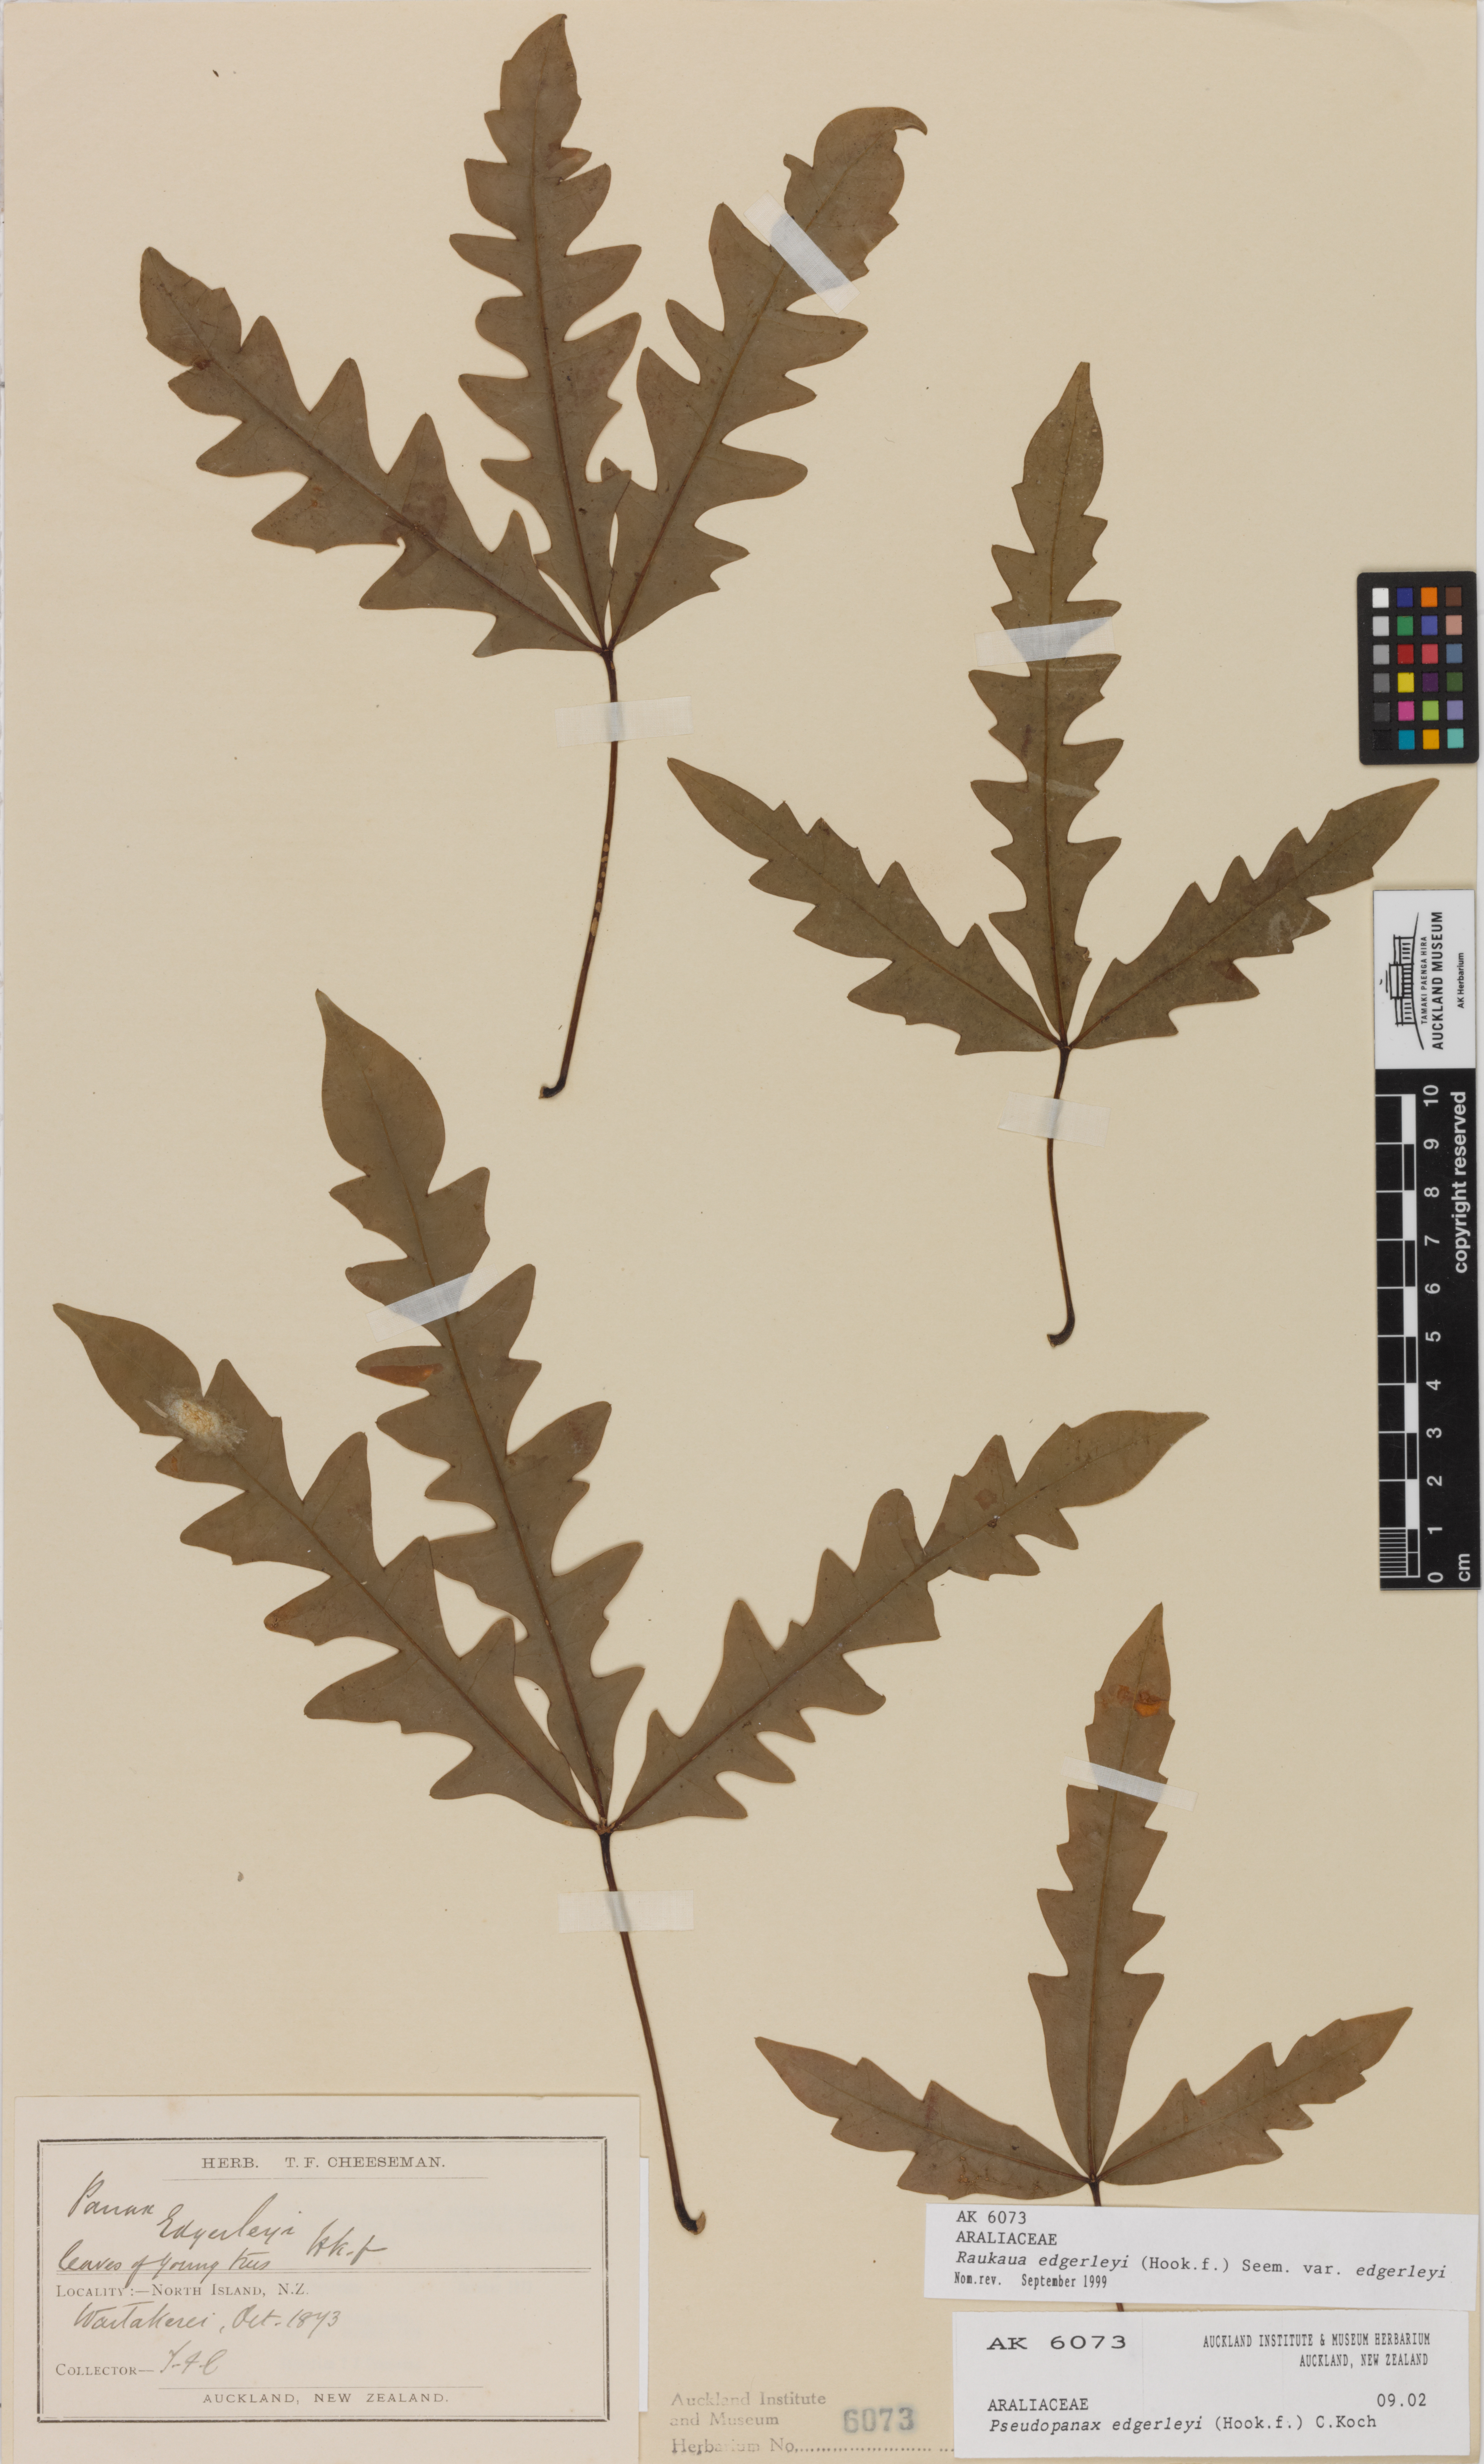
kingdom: Plantae
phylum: Tracheophyta
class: Magnoliopsida
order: Apiales
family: Araliaceae
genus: Raukaua
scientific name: Raukaua edgerleyi
